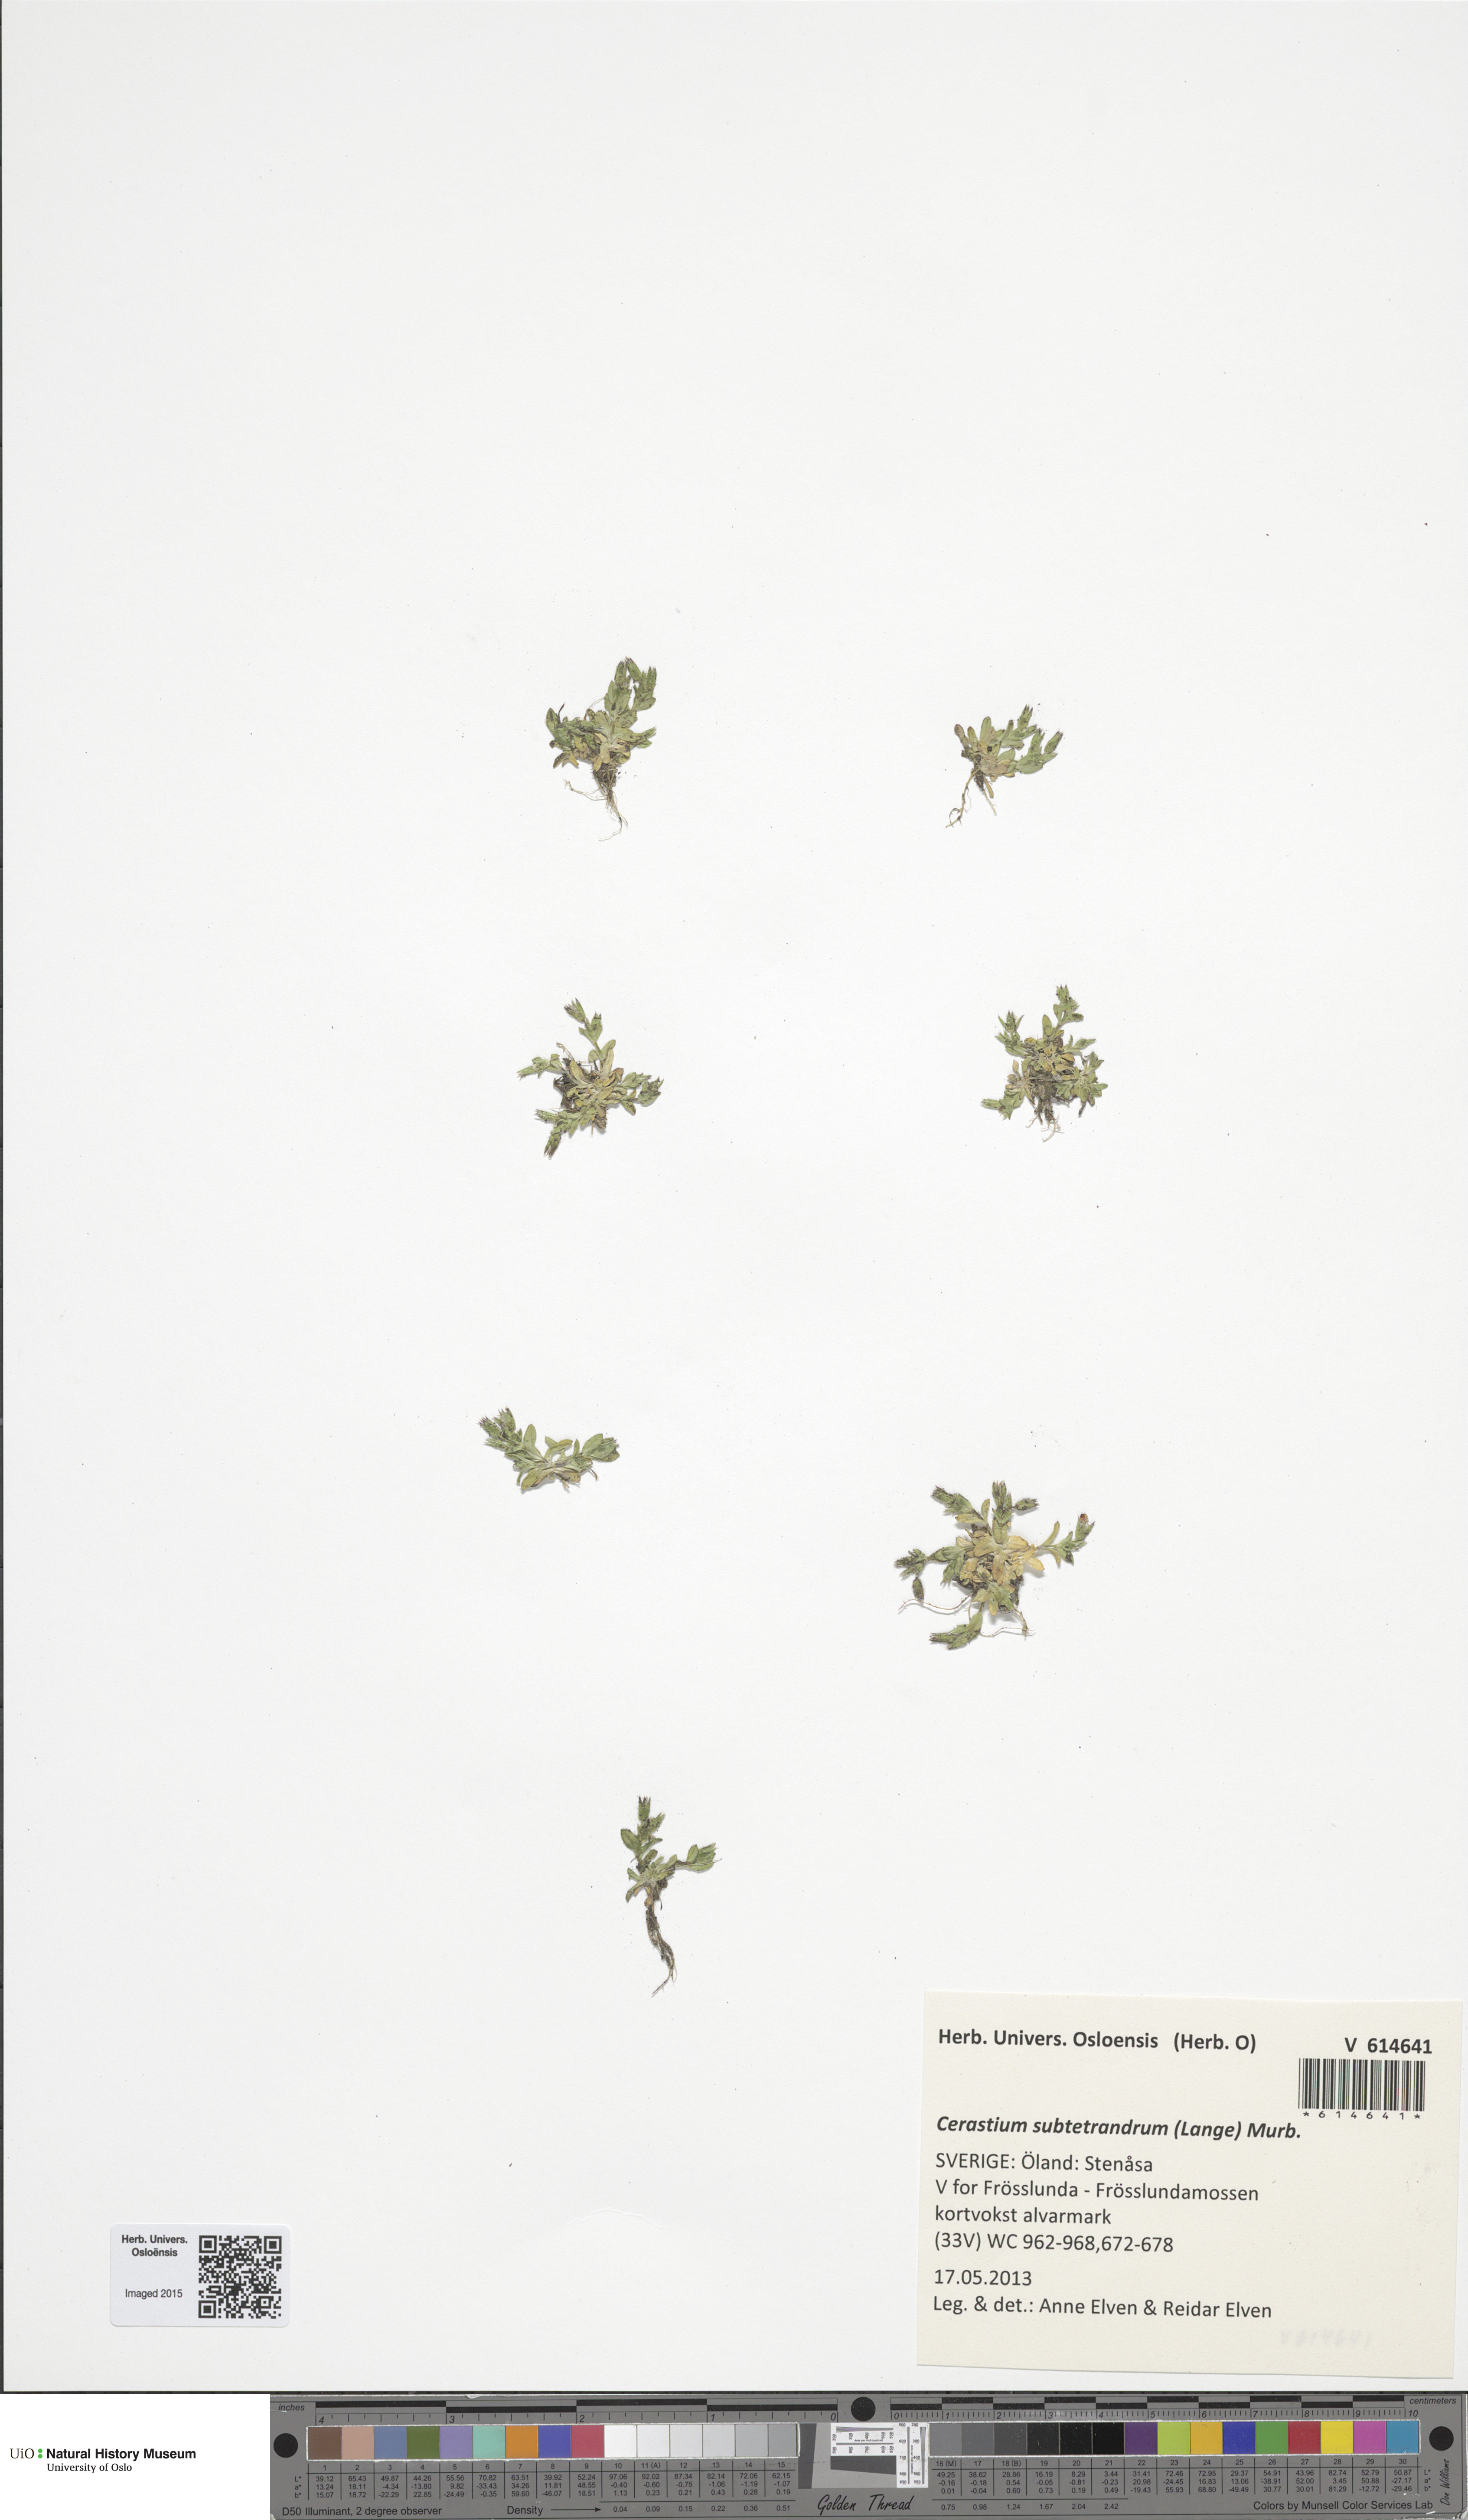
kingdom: Plantae
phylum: Tracheophyta
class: Magnoliopsida
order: Caryophyllales
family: Caryophyllaceae
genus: Cerastium
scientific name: Cerastium subtetrandrum
